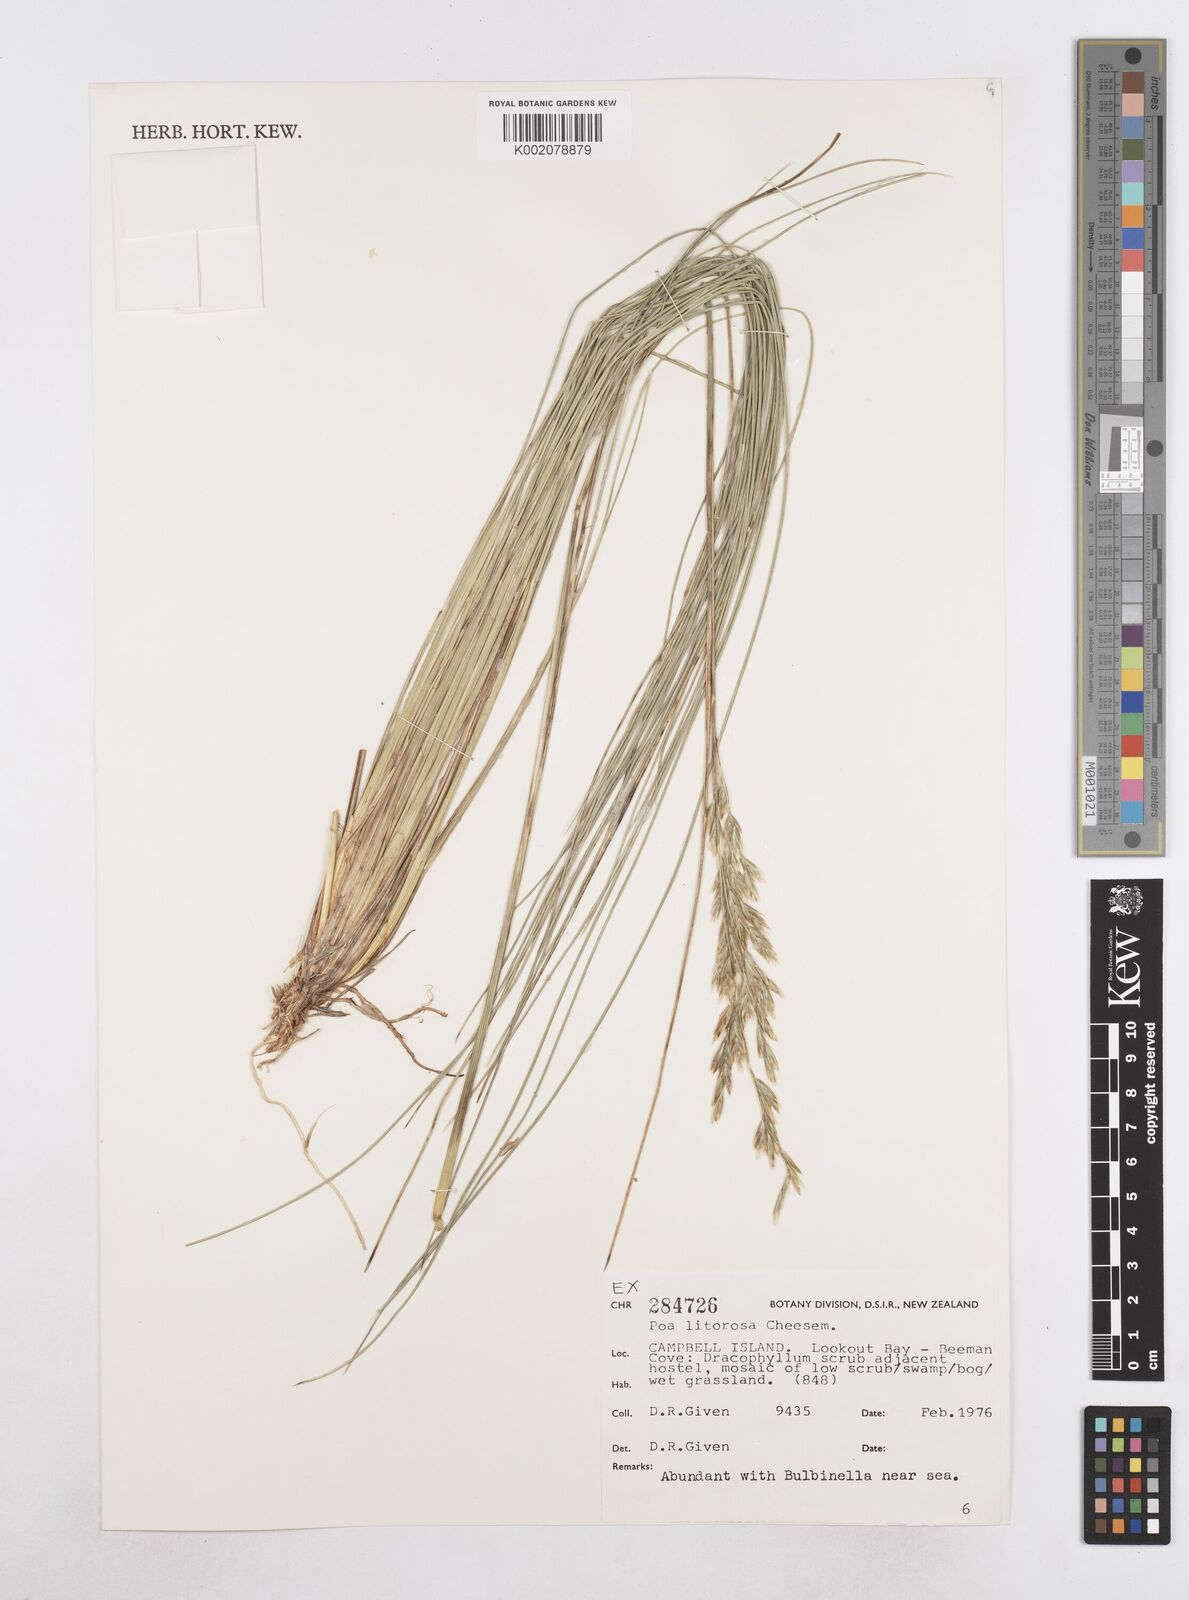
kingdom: Plantae
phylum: Tracheophyta
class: Liliopsida
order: Poales
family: Poaceae
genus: Poa
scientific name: Poa litorosa
